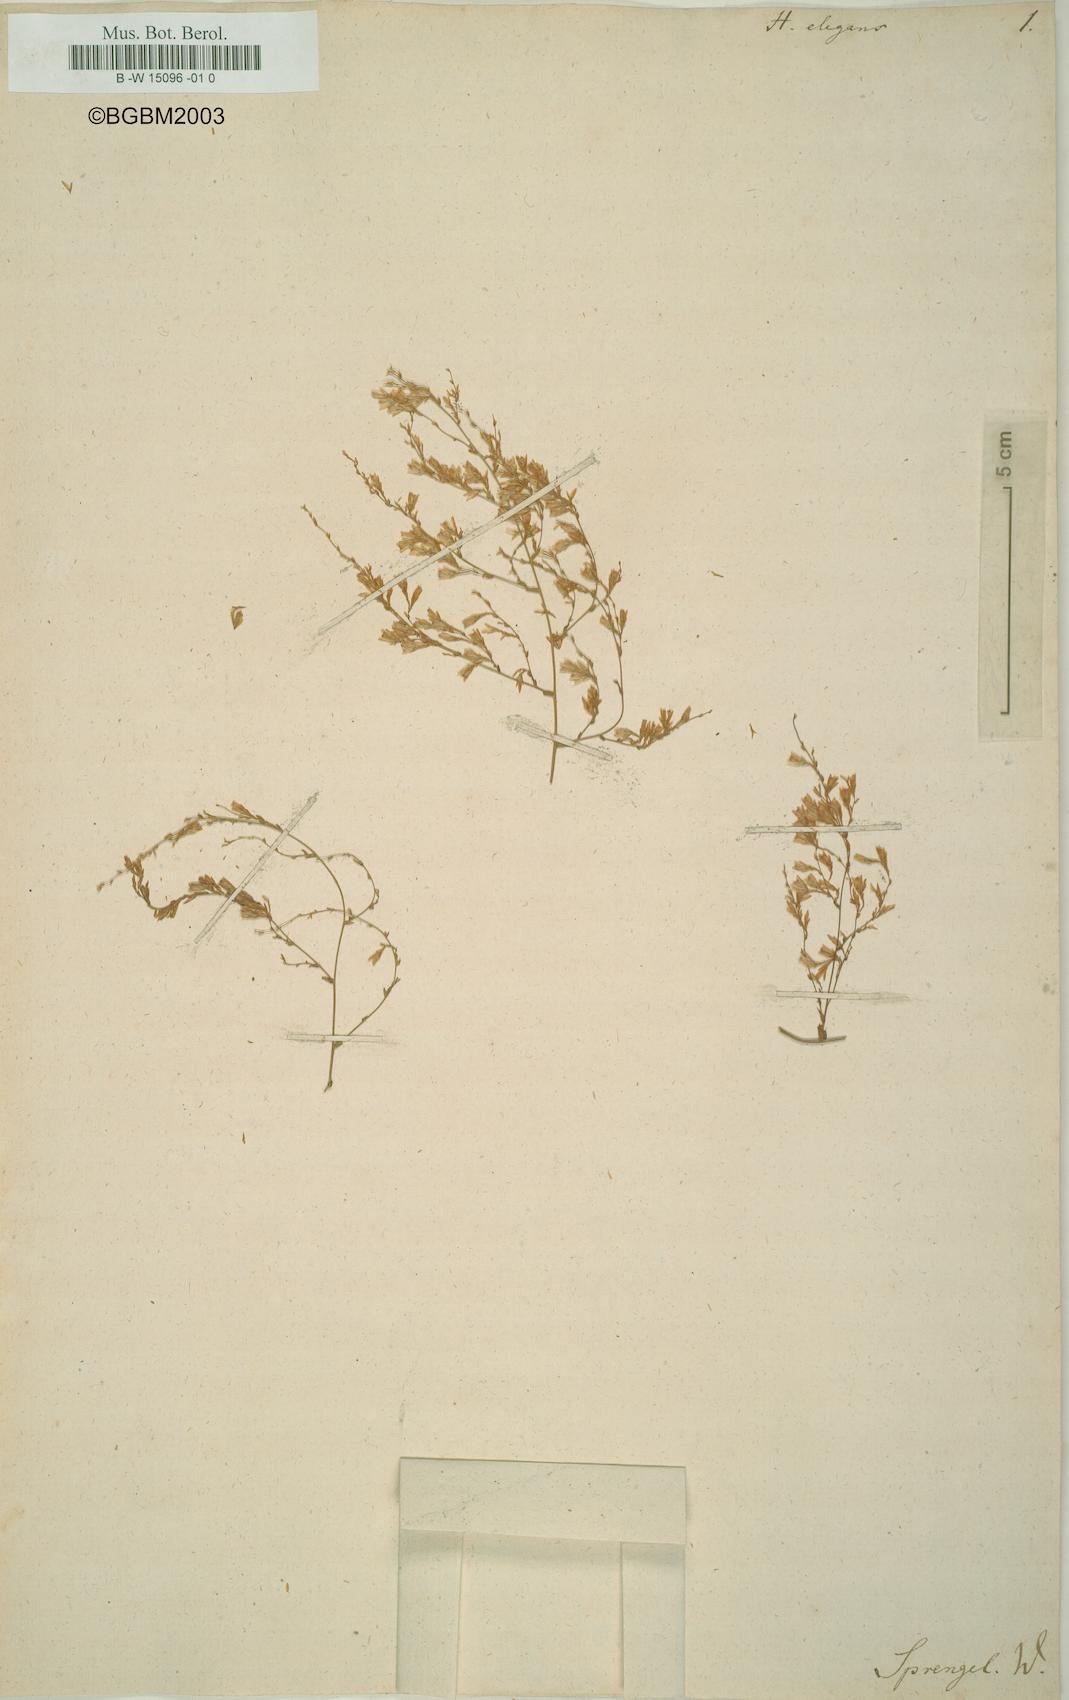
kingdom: Plantae
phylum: Tracheophyta
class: Magnoliopsida
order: Asterales
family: Asteraceae
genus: Calomeria
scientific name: Calomeria amaranthoides
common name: Incenseplant
